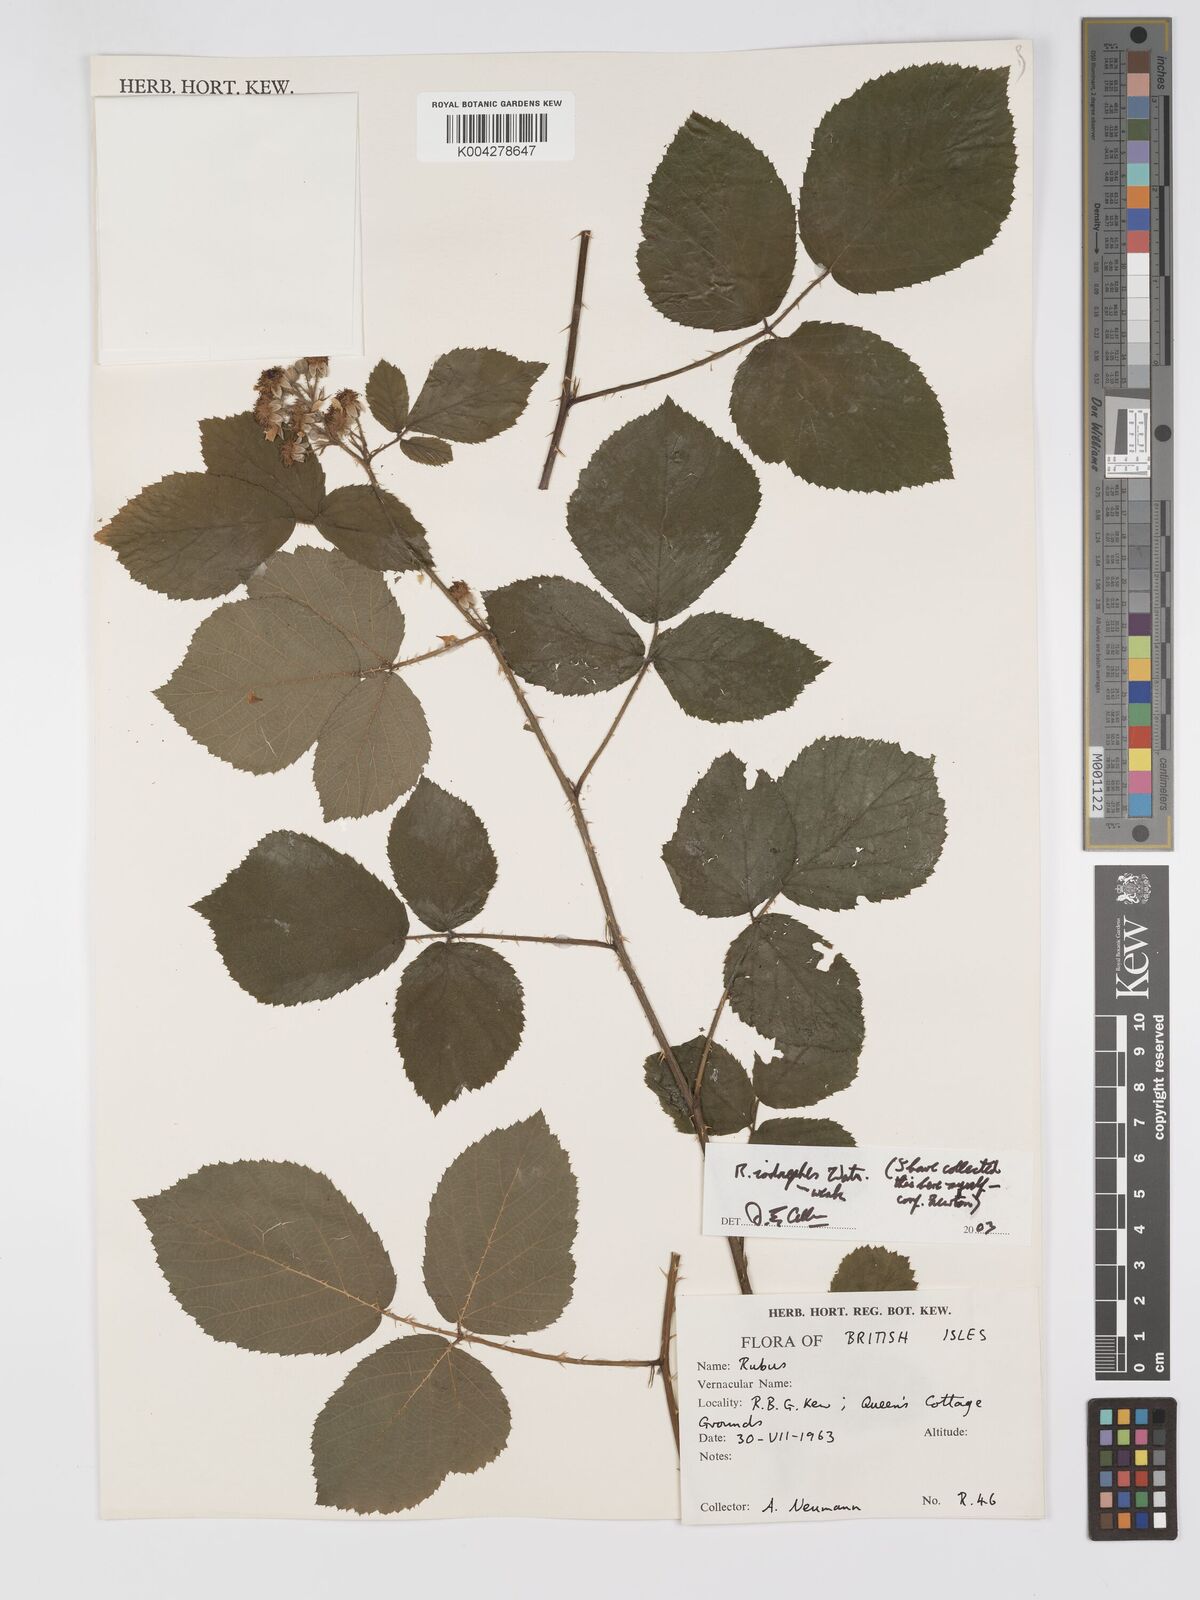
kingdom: Plantae
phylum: Tracheophyta
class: Magnoliopsida
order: Rosales
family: Rosaceae
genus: Rubus
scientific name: Rubus pictorum
